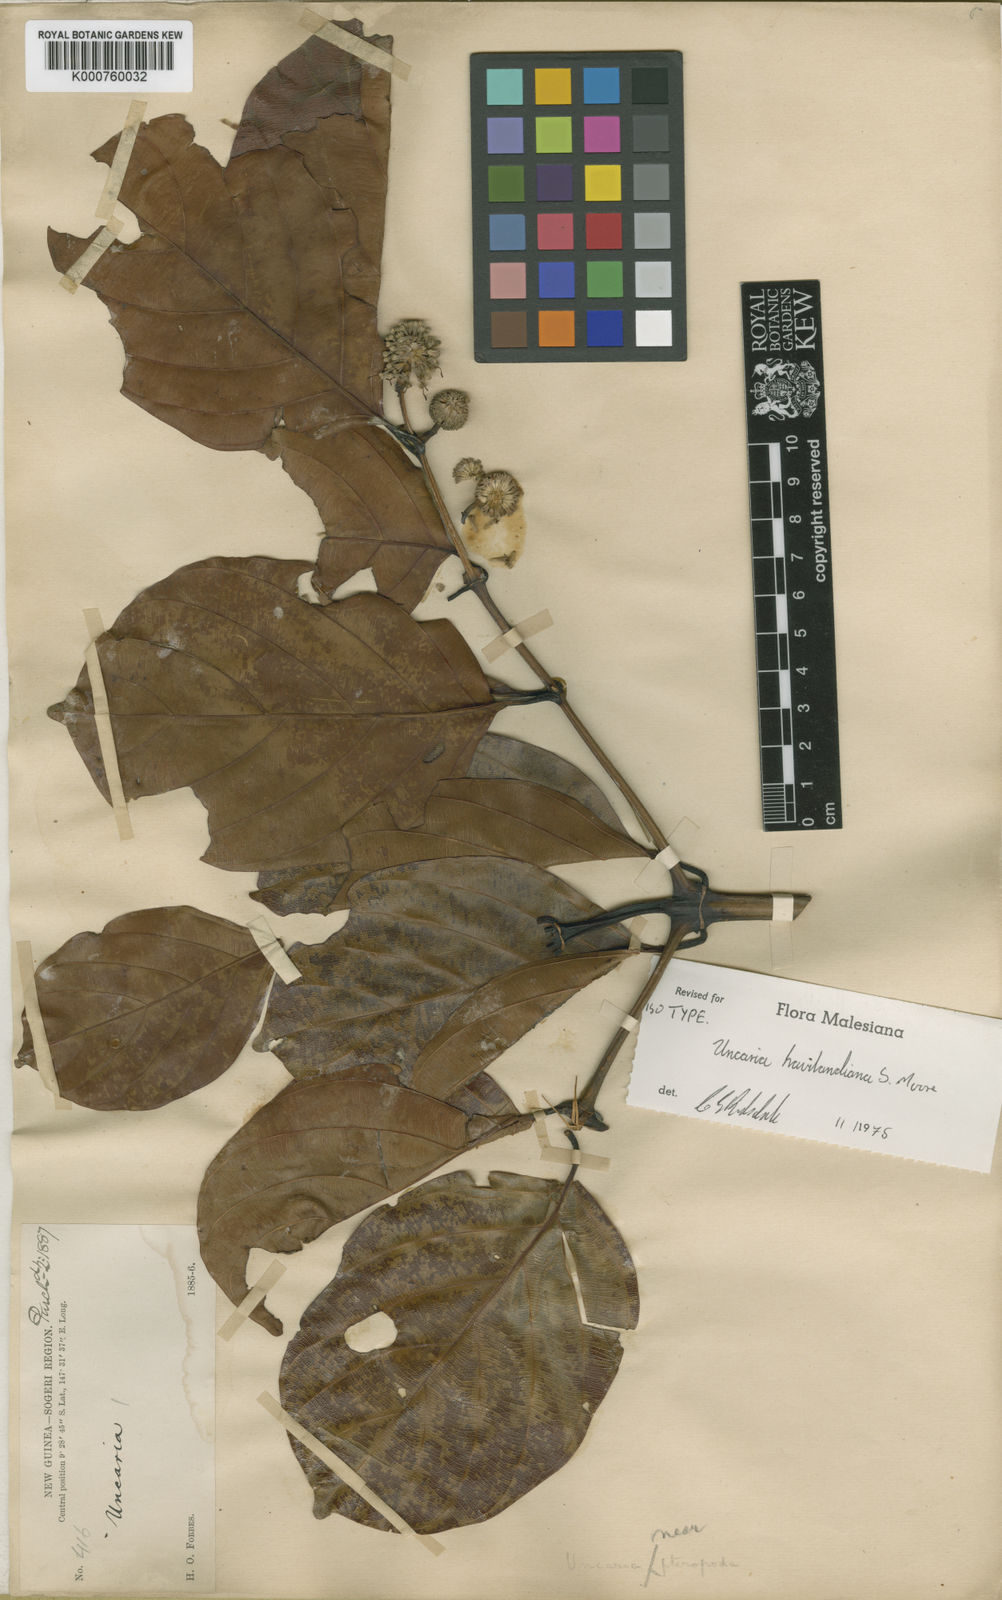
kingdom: Plantae
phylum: Tracheophyta
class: Magnoliopsida
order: Gentianales
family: Rubiaceae
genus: Uncaria
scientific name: Uncaria longiflora
